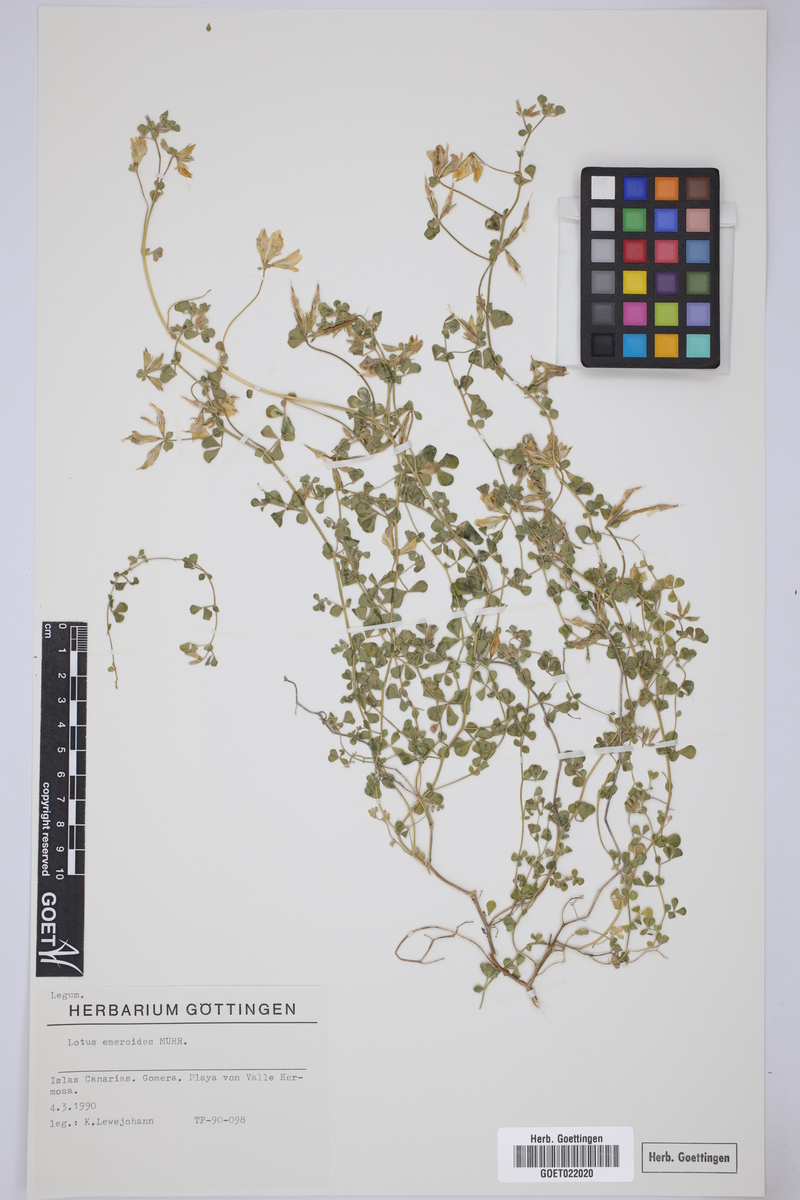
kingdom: Plantae
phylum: Tracheophyta
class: Magnoliopsida
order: Fabales
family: Fabaceae
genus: Lotus
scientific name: Lotus emeroides
